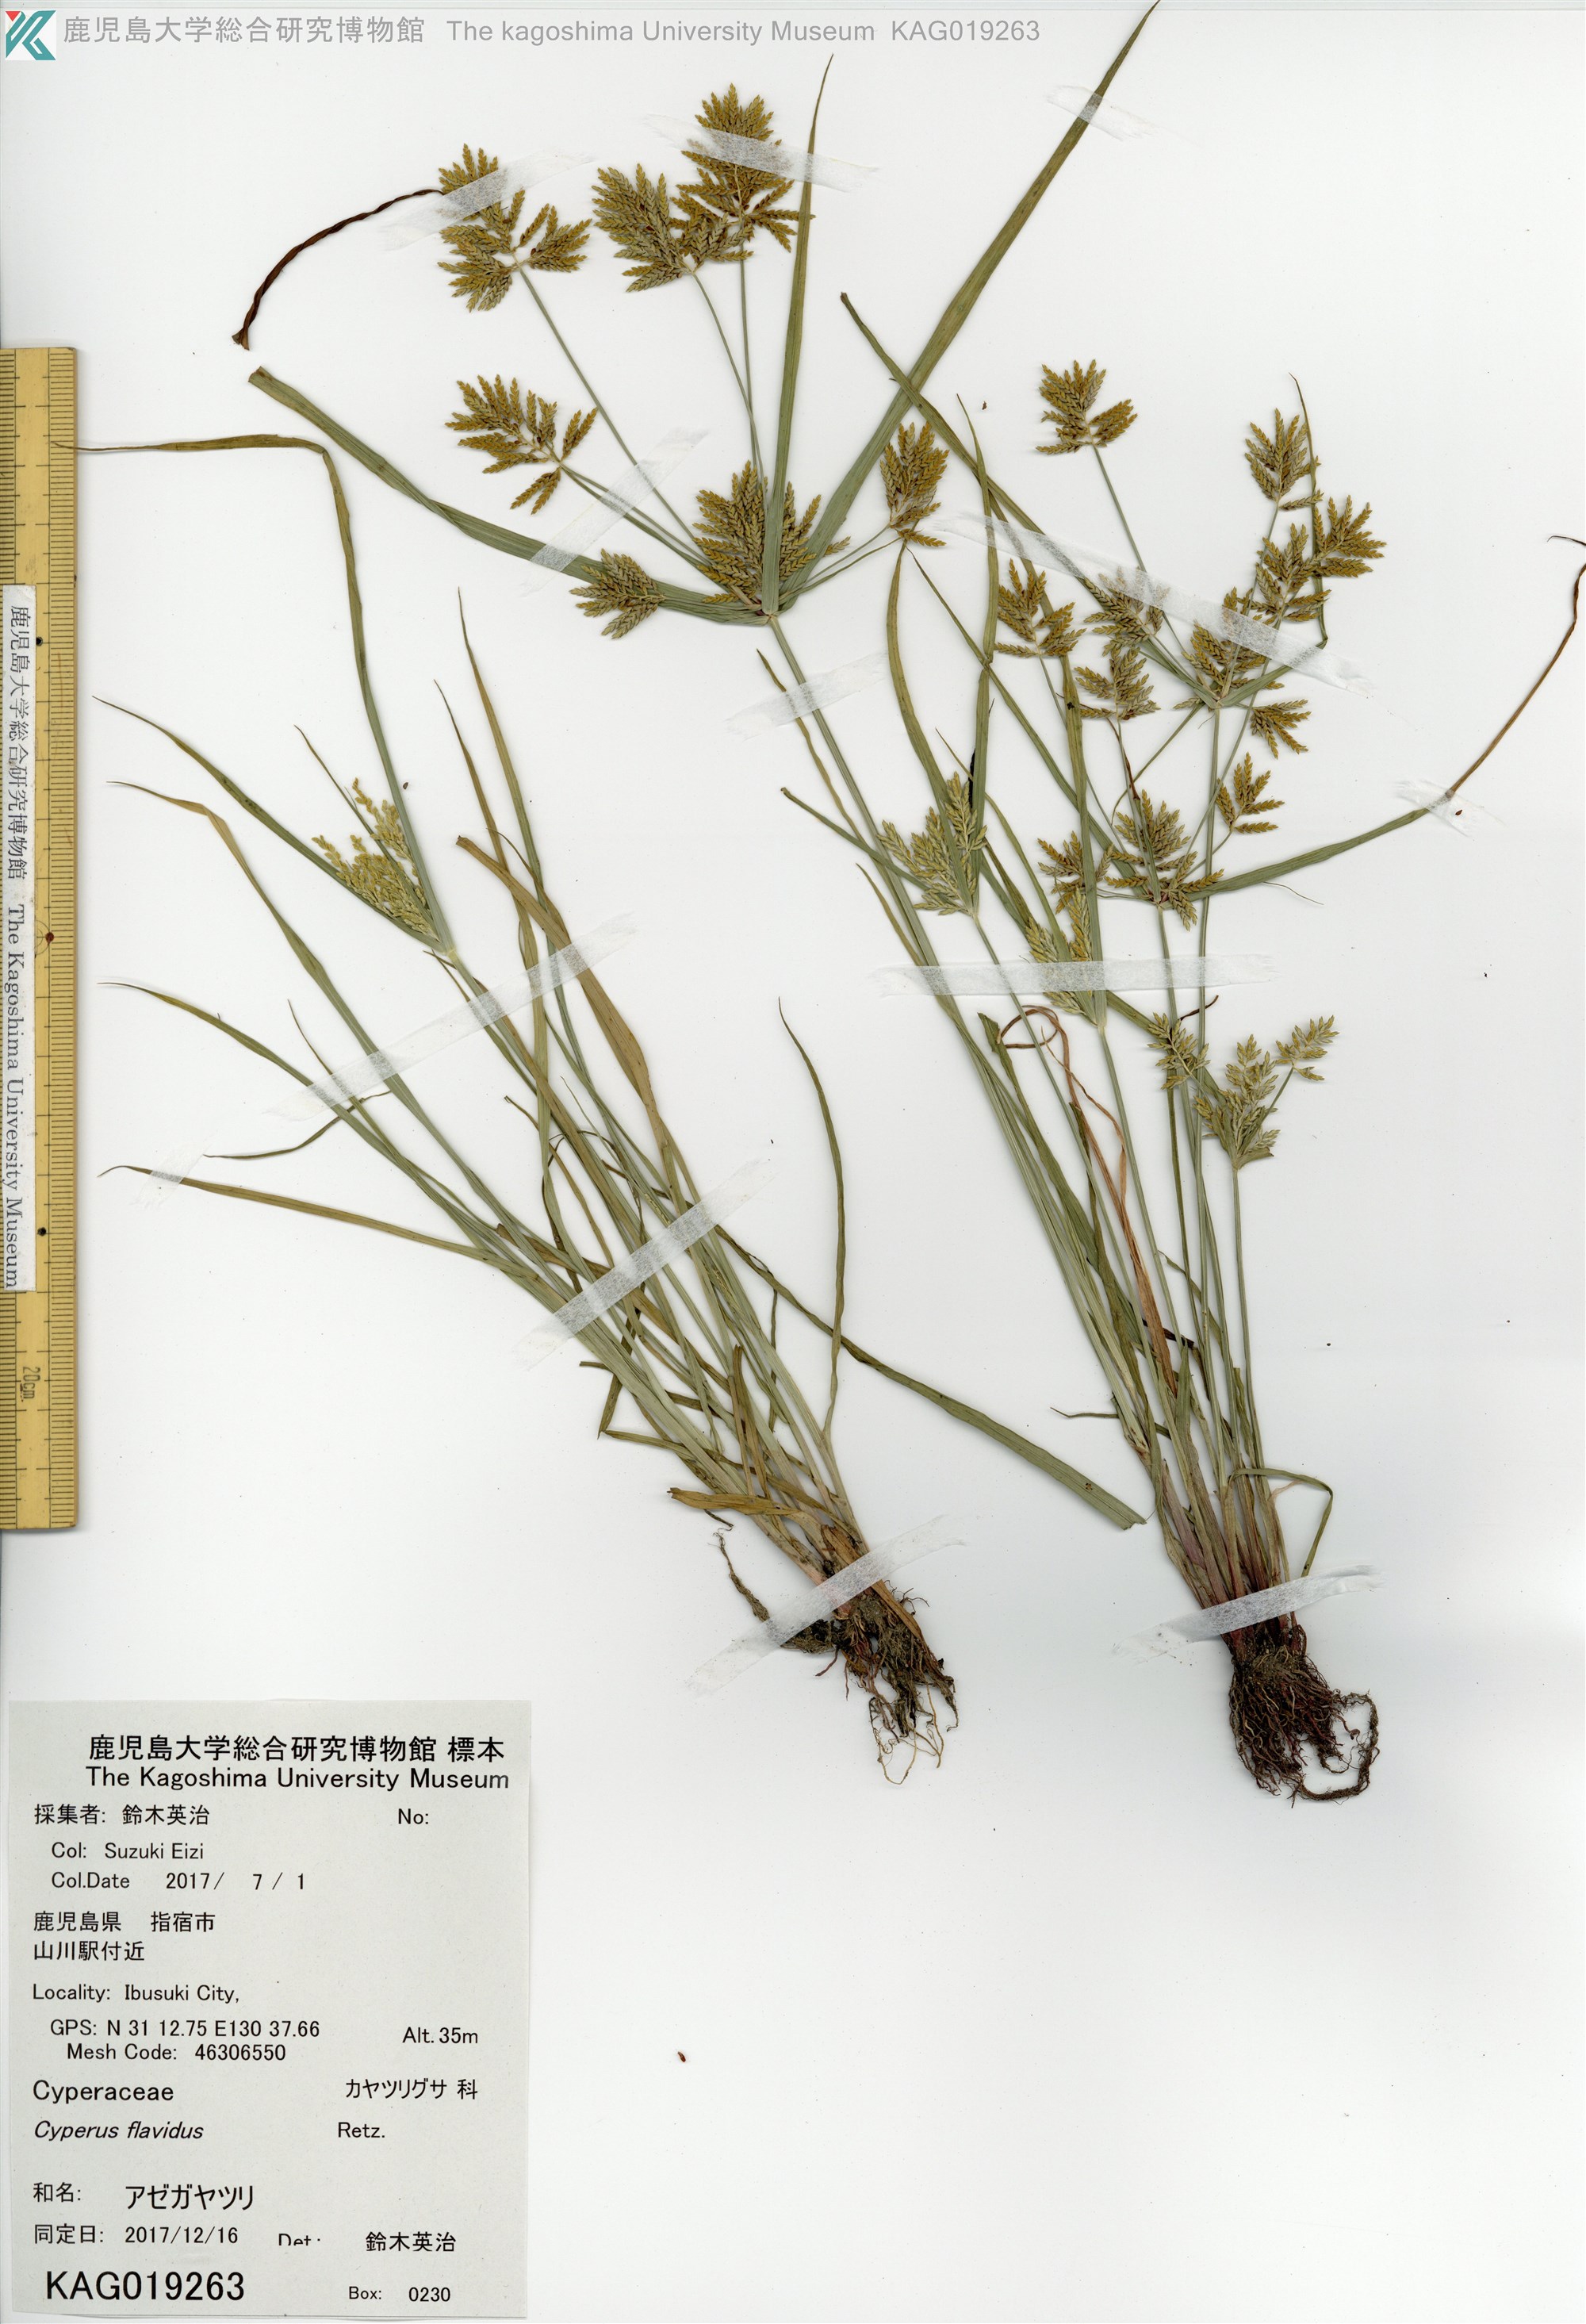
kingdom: Plantae
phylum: Tracheophyta
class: Liliopsida
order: Poales
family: Cyperaceae
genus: Cyperus
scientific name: Cyperus microiria
